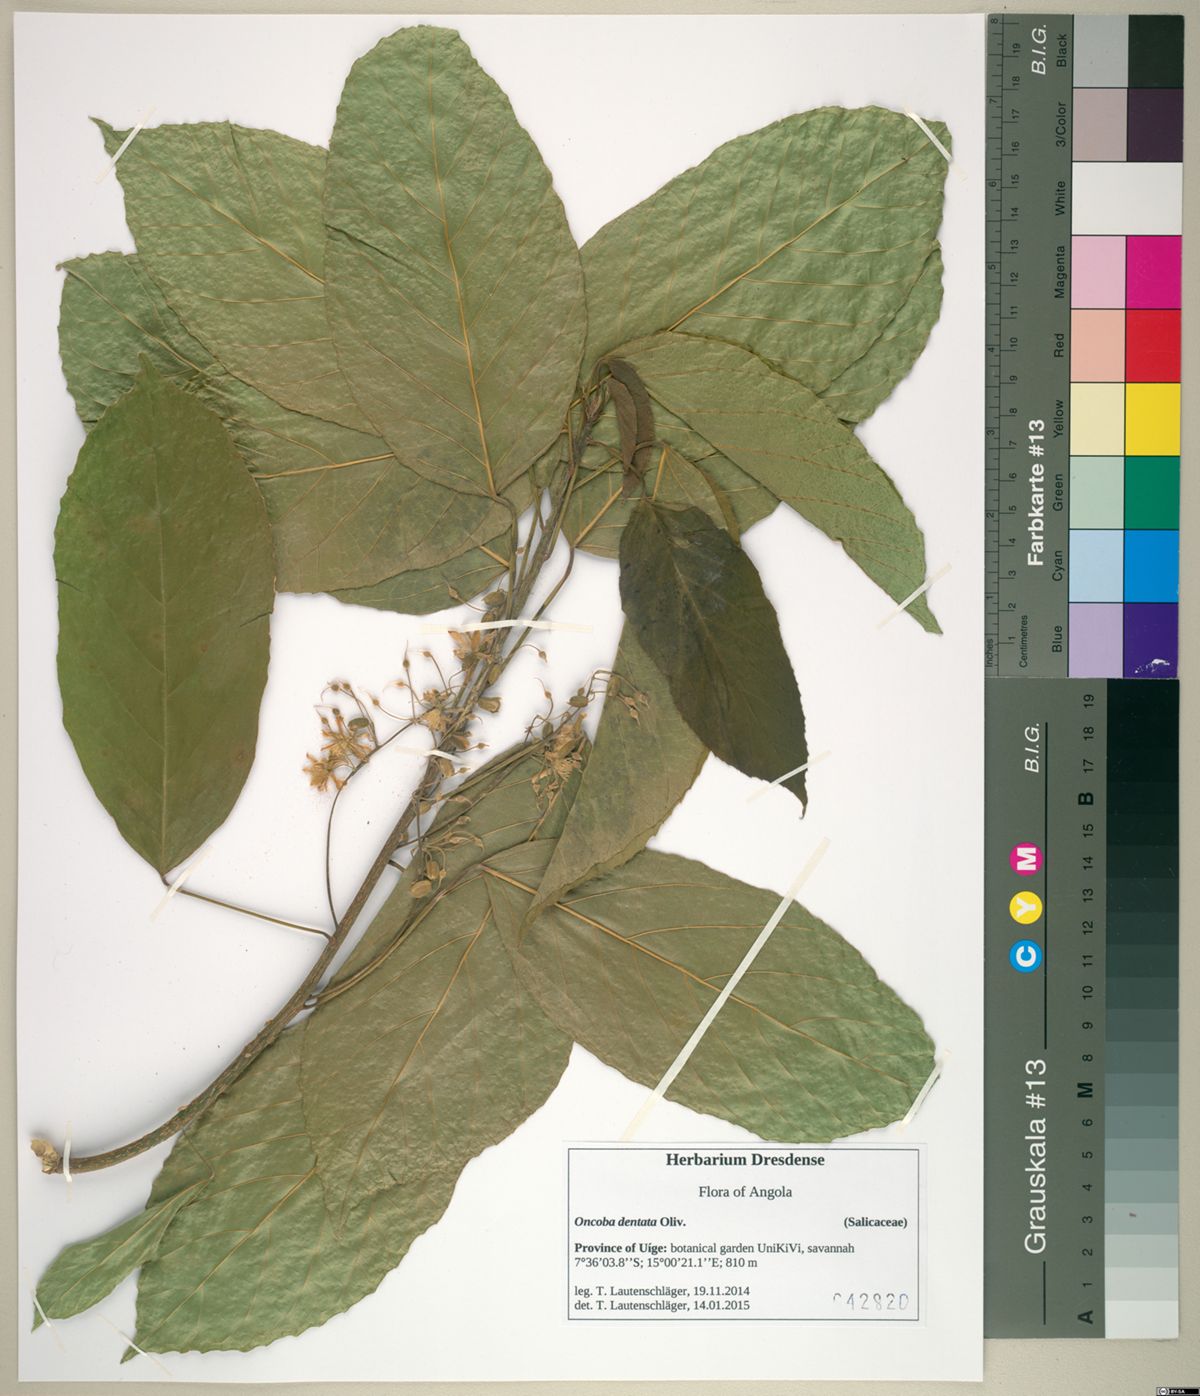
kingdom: Plantae
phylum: Tracheophyta
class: Magnoliopsida
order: Malpighiales
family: Achariaceae
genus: Lindackeria
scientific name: Lindackeria dentata
